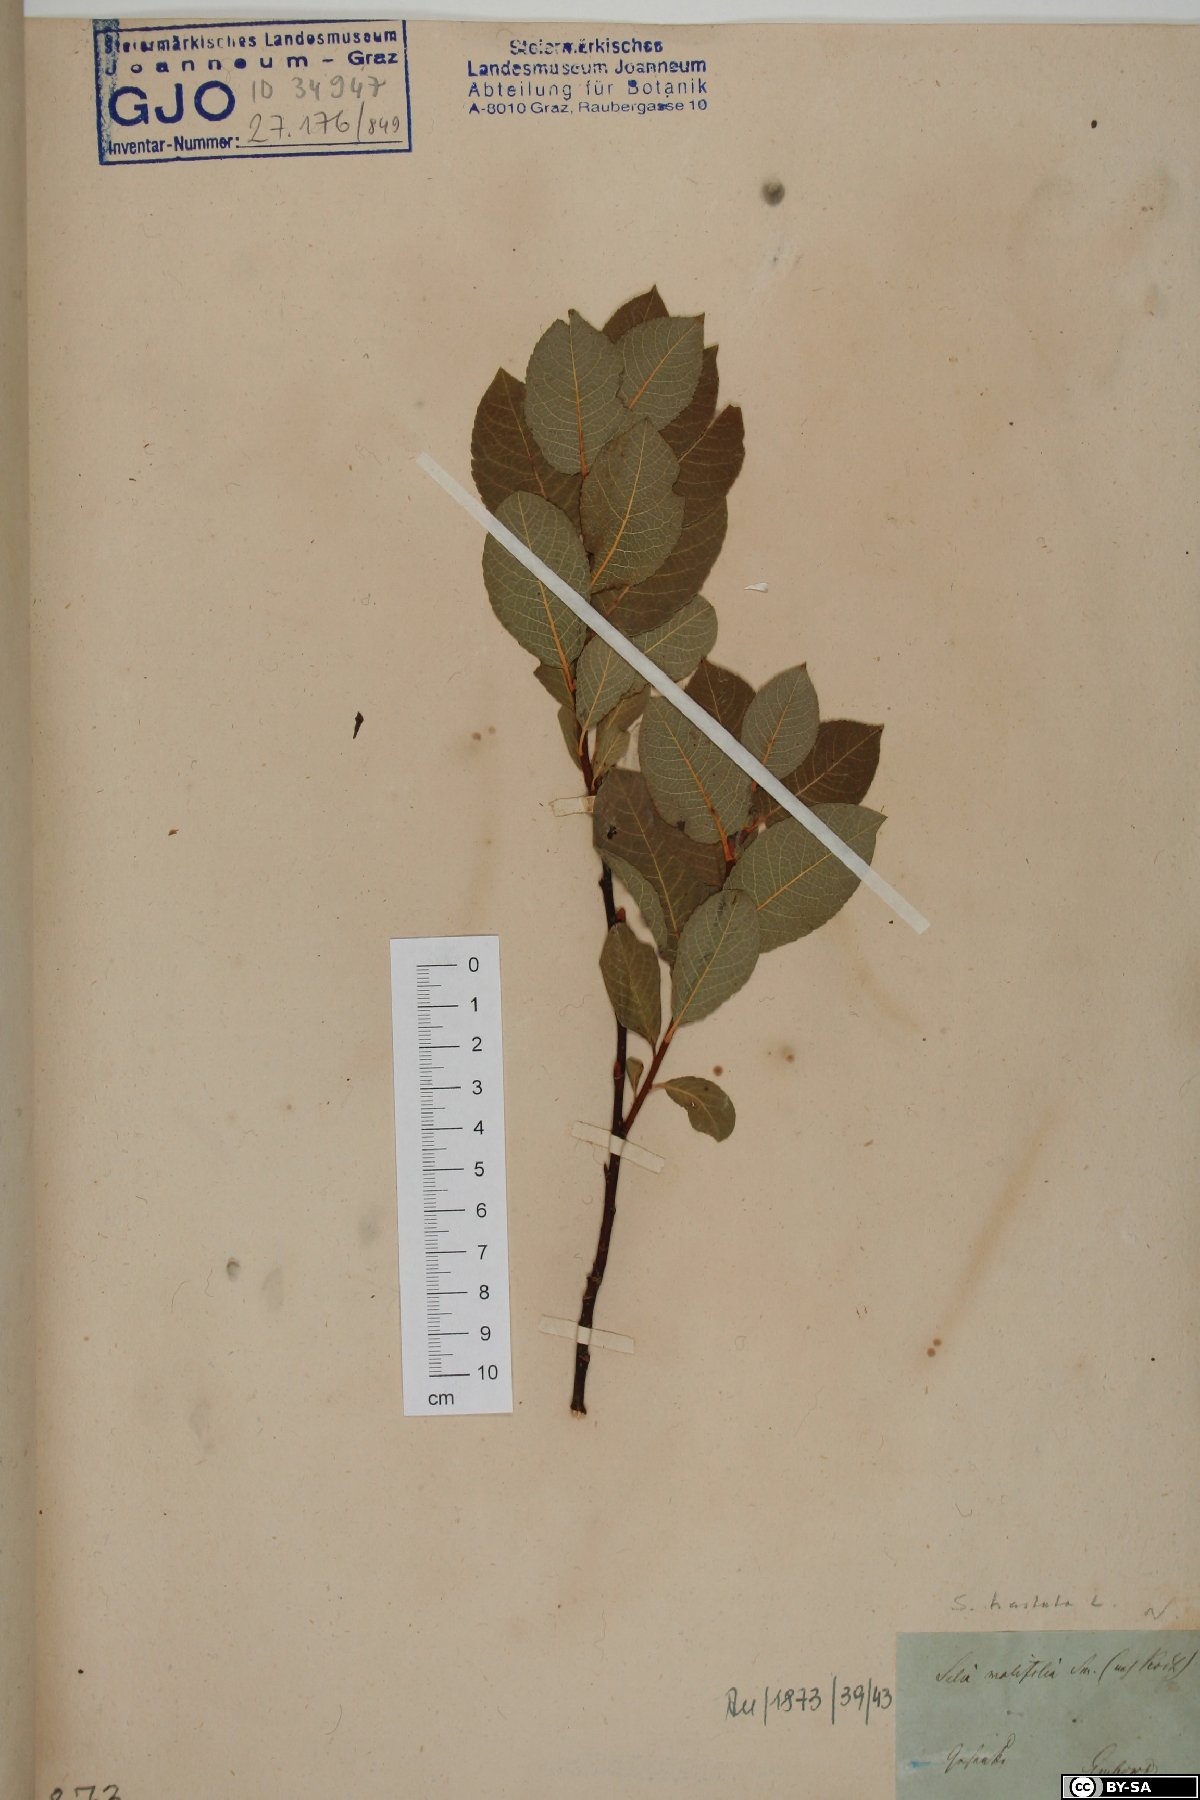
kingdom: Plantae
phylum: Tracheophyta
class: Magnoliopsida
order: Malpighiales
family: Salicaceae
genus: Salix
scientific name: Salix hastata
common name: Halberd willow
